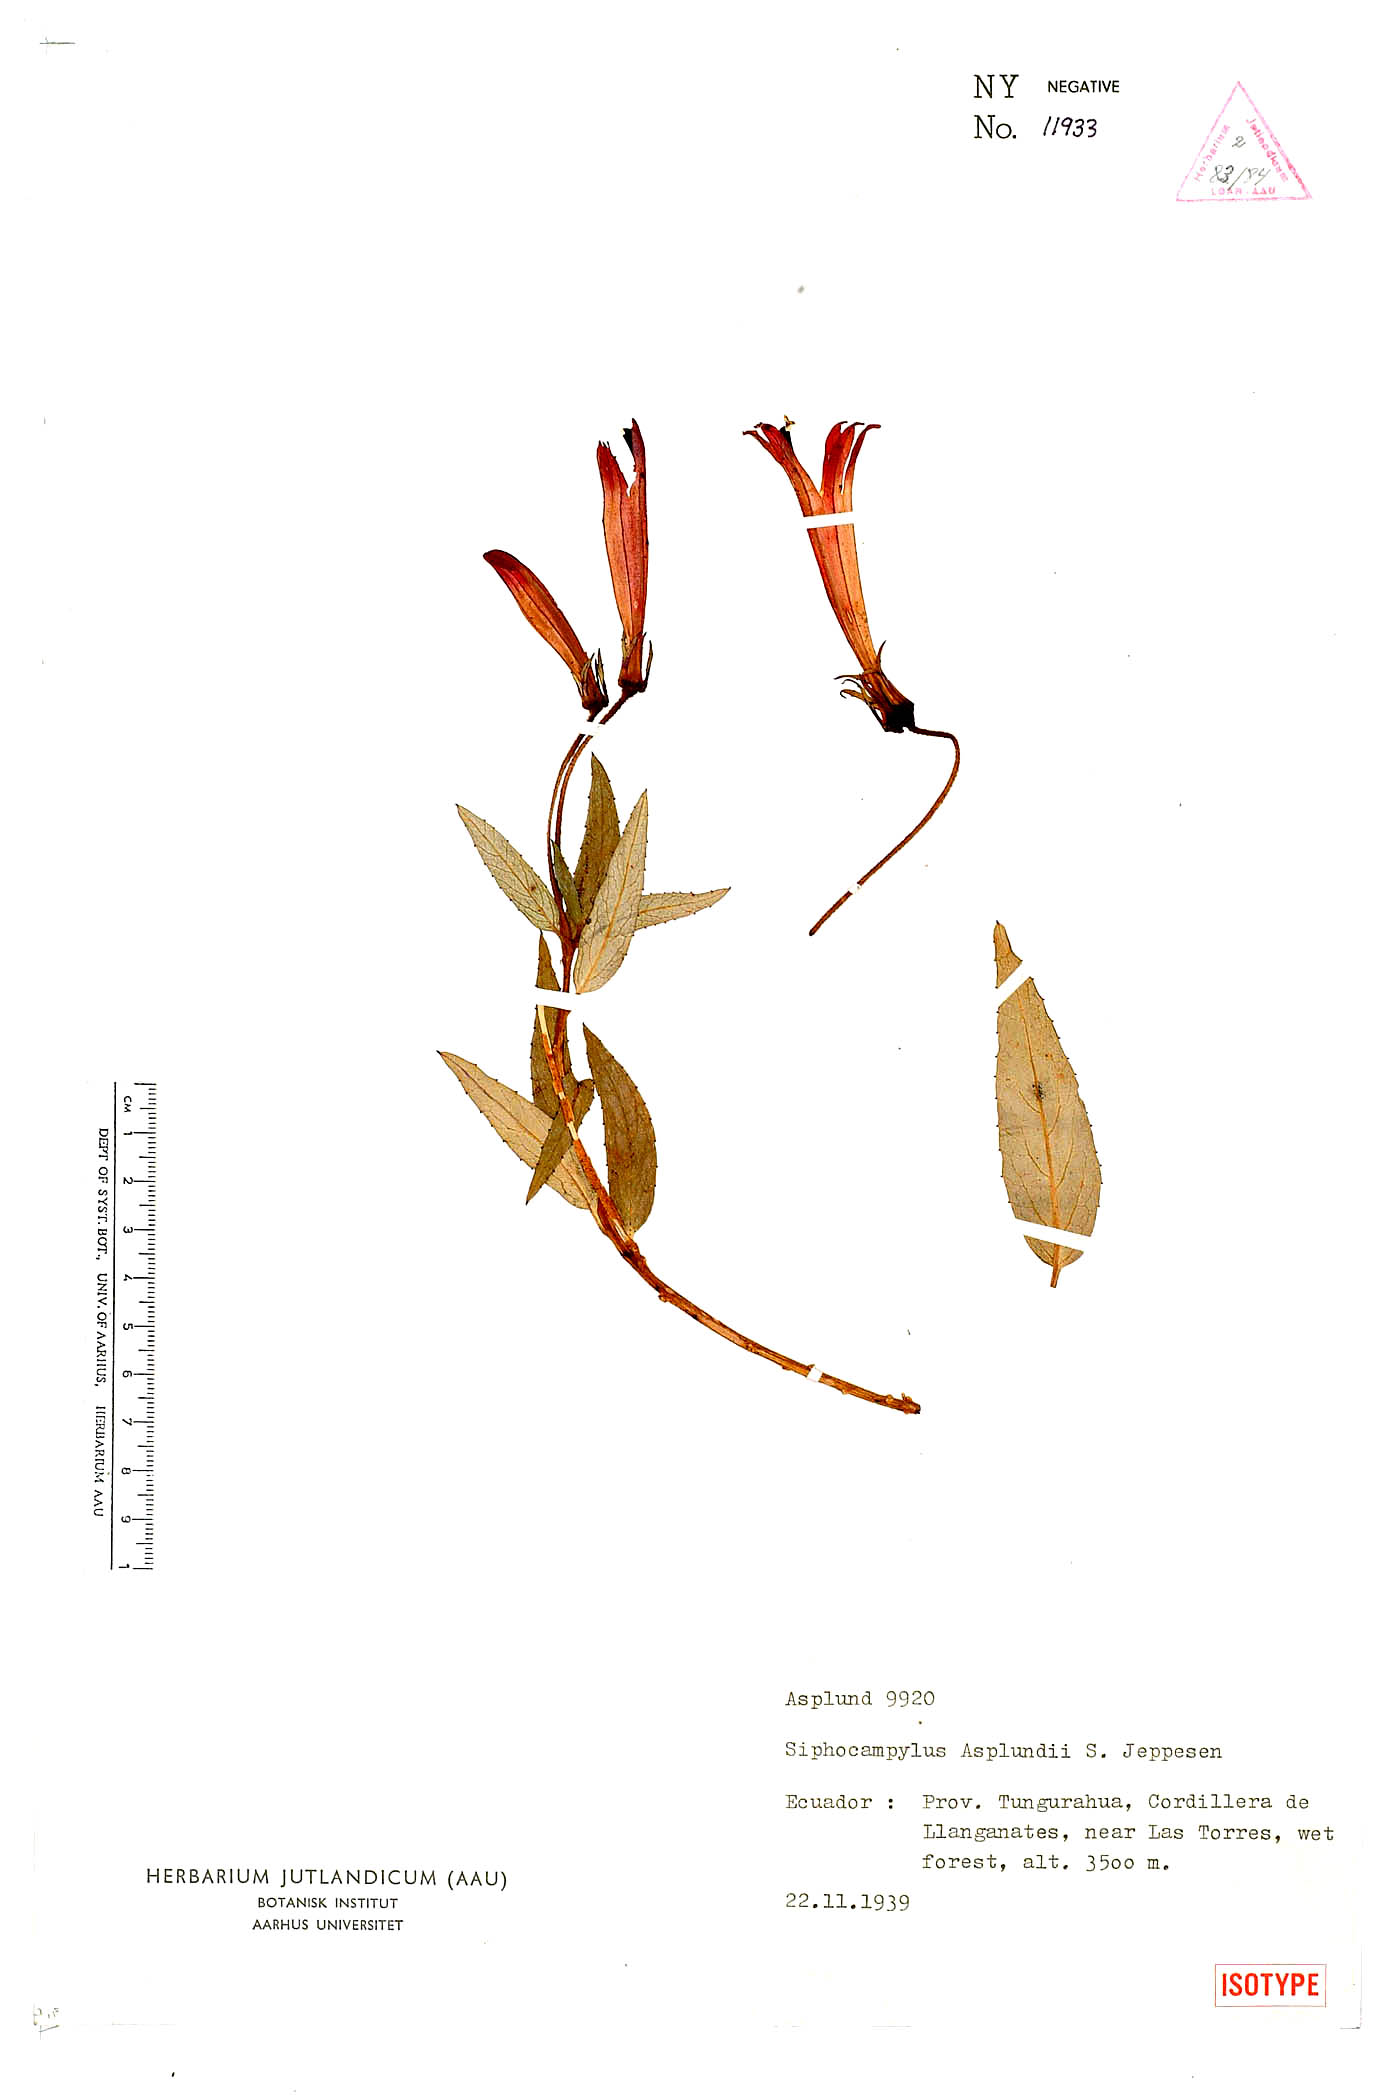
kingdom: Plantae
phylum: Tracheophyta
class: Magnoliopsida
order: Asterales
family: Campanulaceae
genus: Siphocampylus
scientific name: Siphocampylus asplundii
